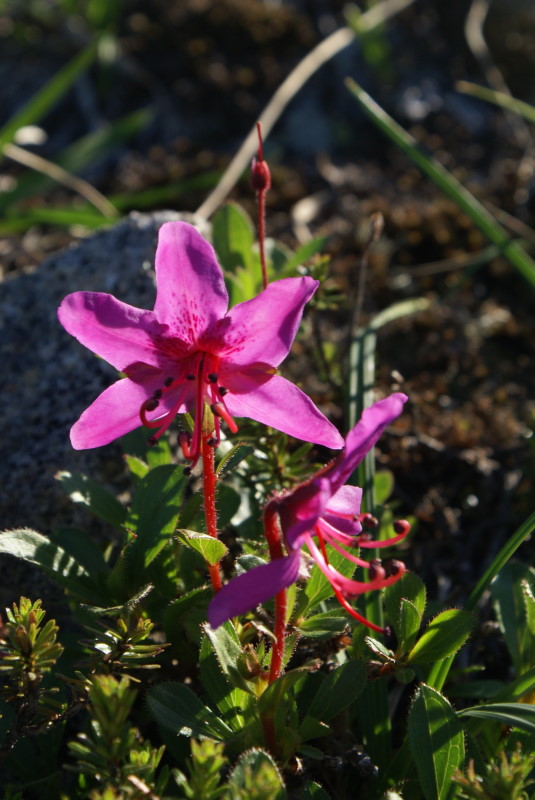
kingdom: Plantae
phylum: Tracheophyta
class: Magnoliopsida
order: Ericales
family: Ericaceae
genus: Rhododendron
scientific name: Rhododendron camtschaticum
